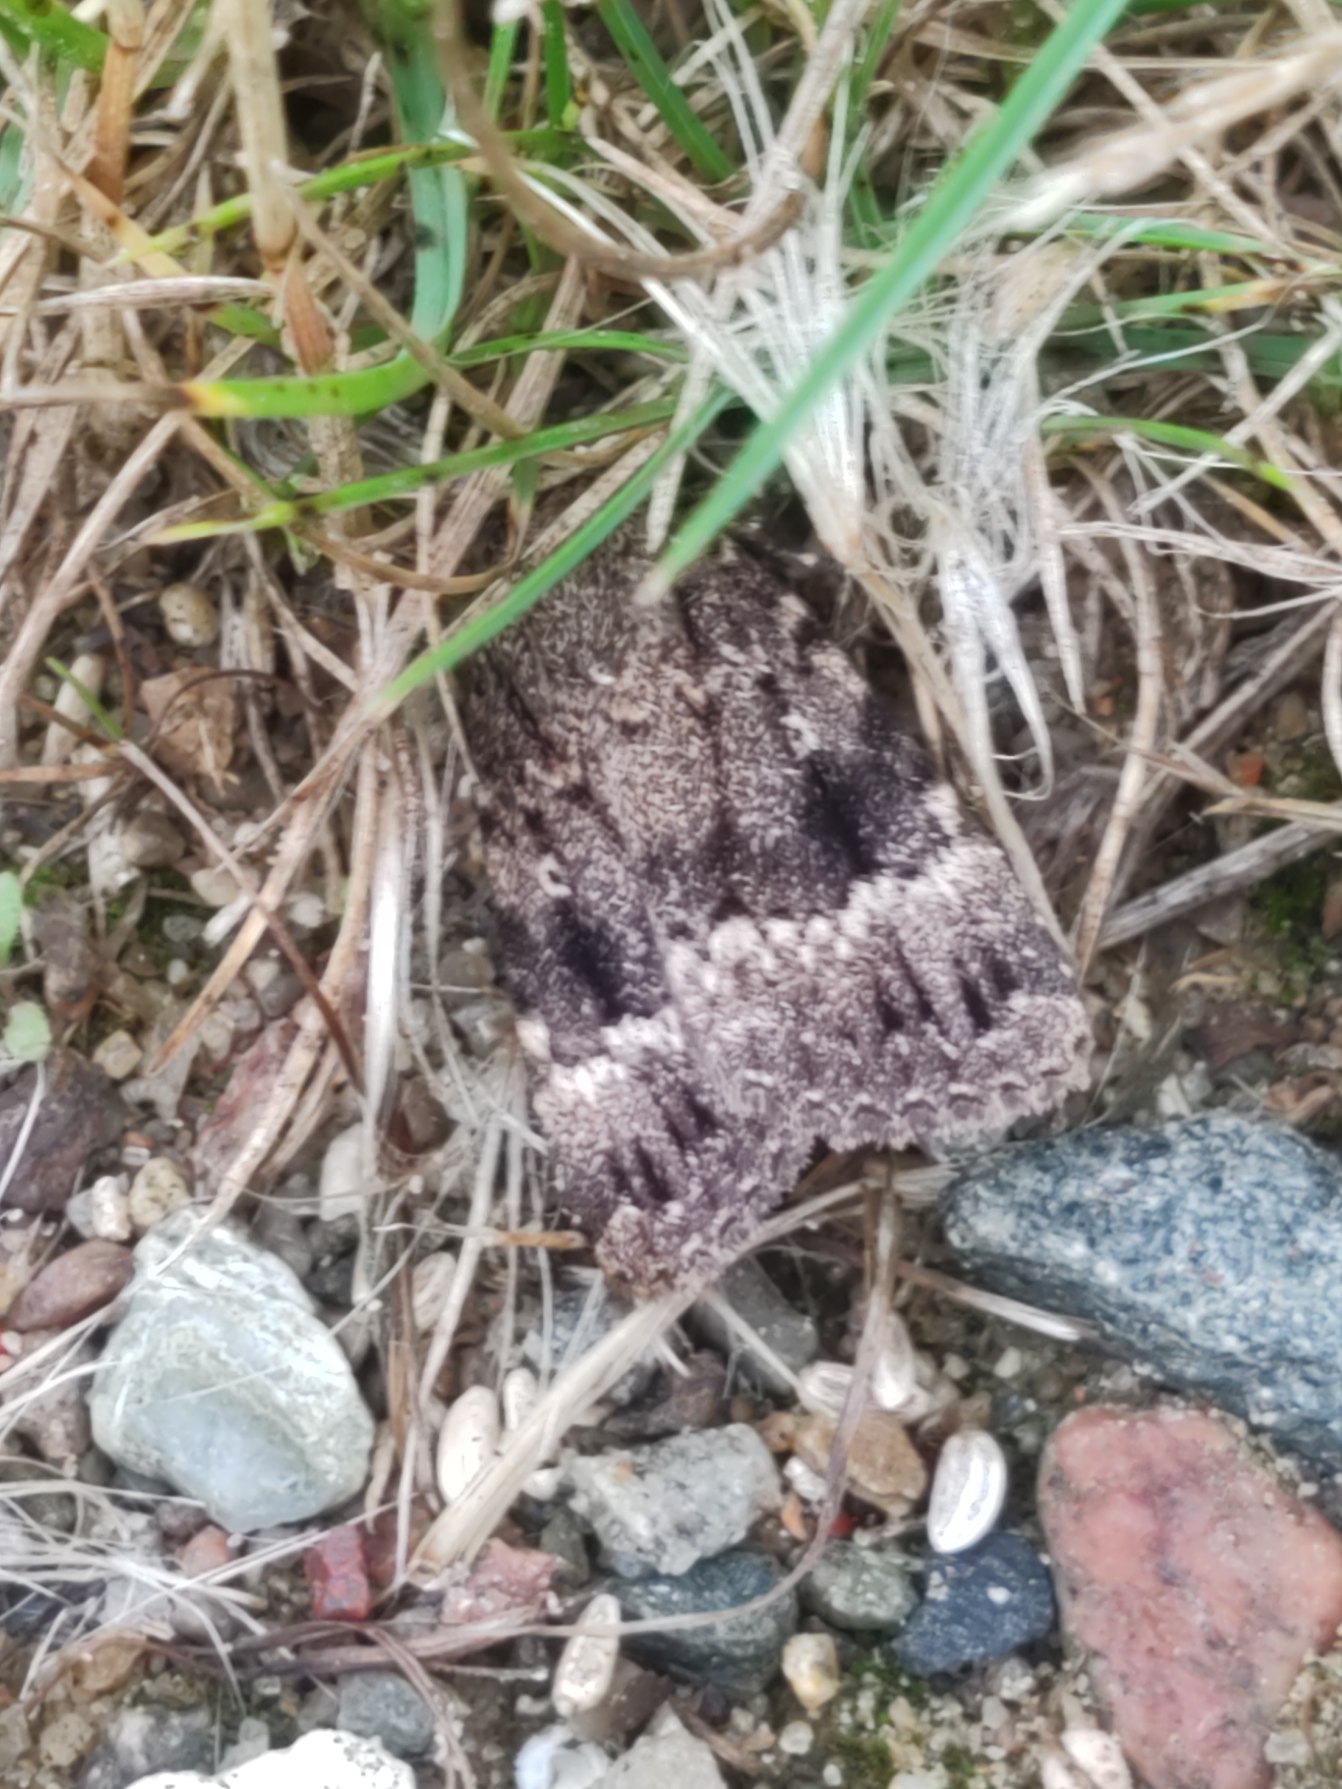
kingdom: Animalia
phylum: Arthropoda
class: Insecta
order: Lepidoptera
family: Noctuidae
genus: Amphipyra
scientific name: Amphipyra pyramidea
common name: Pyramideugle
